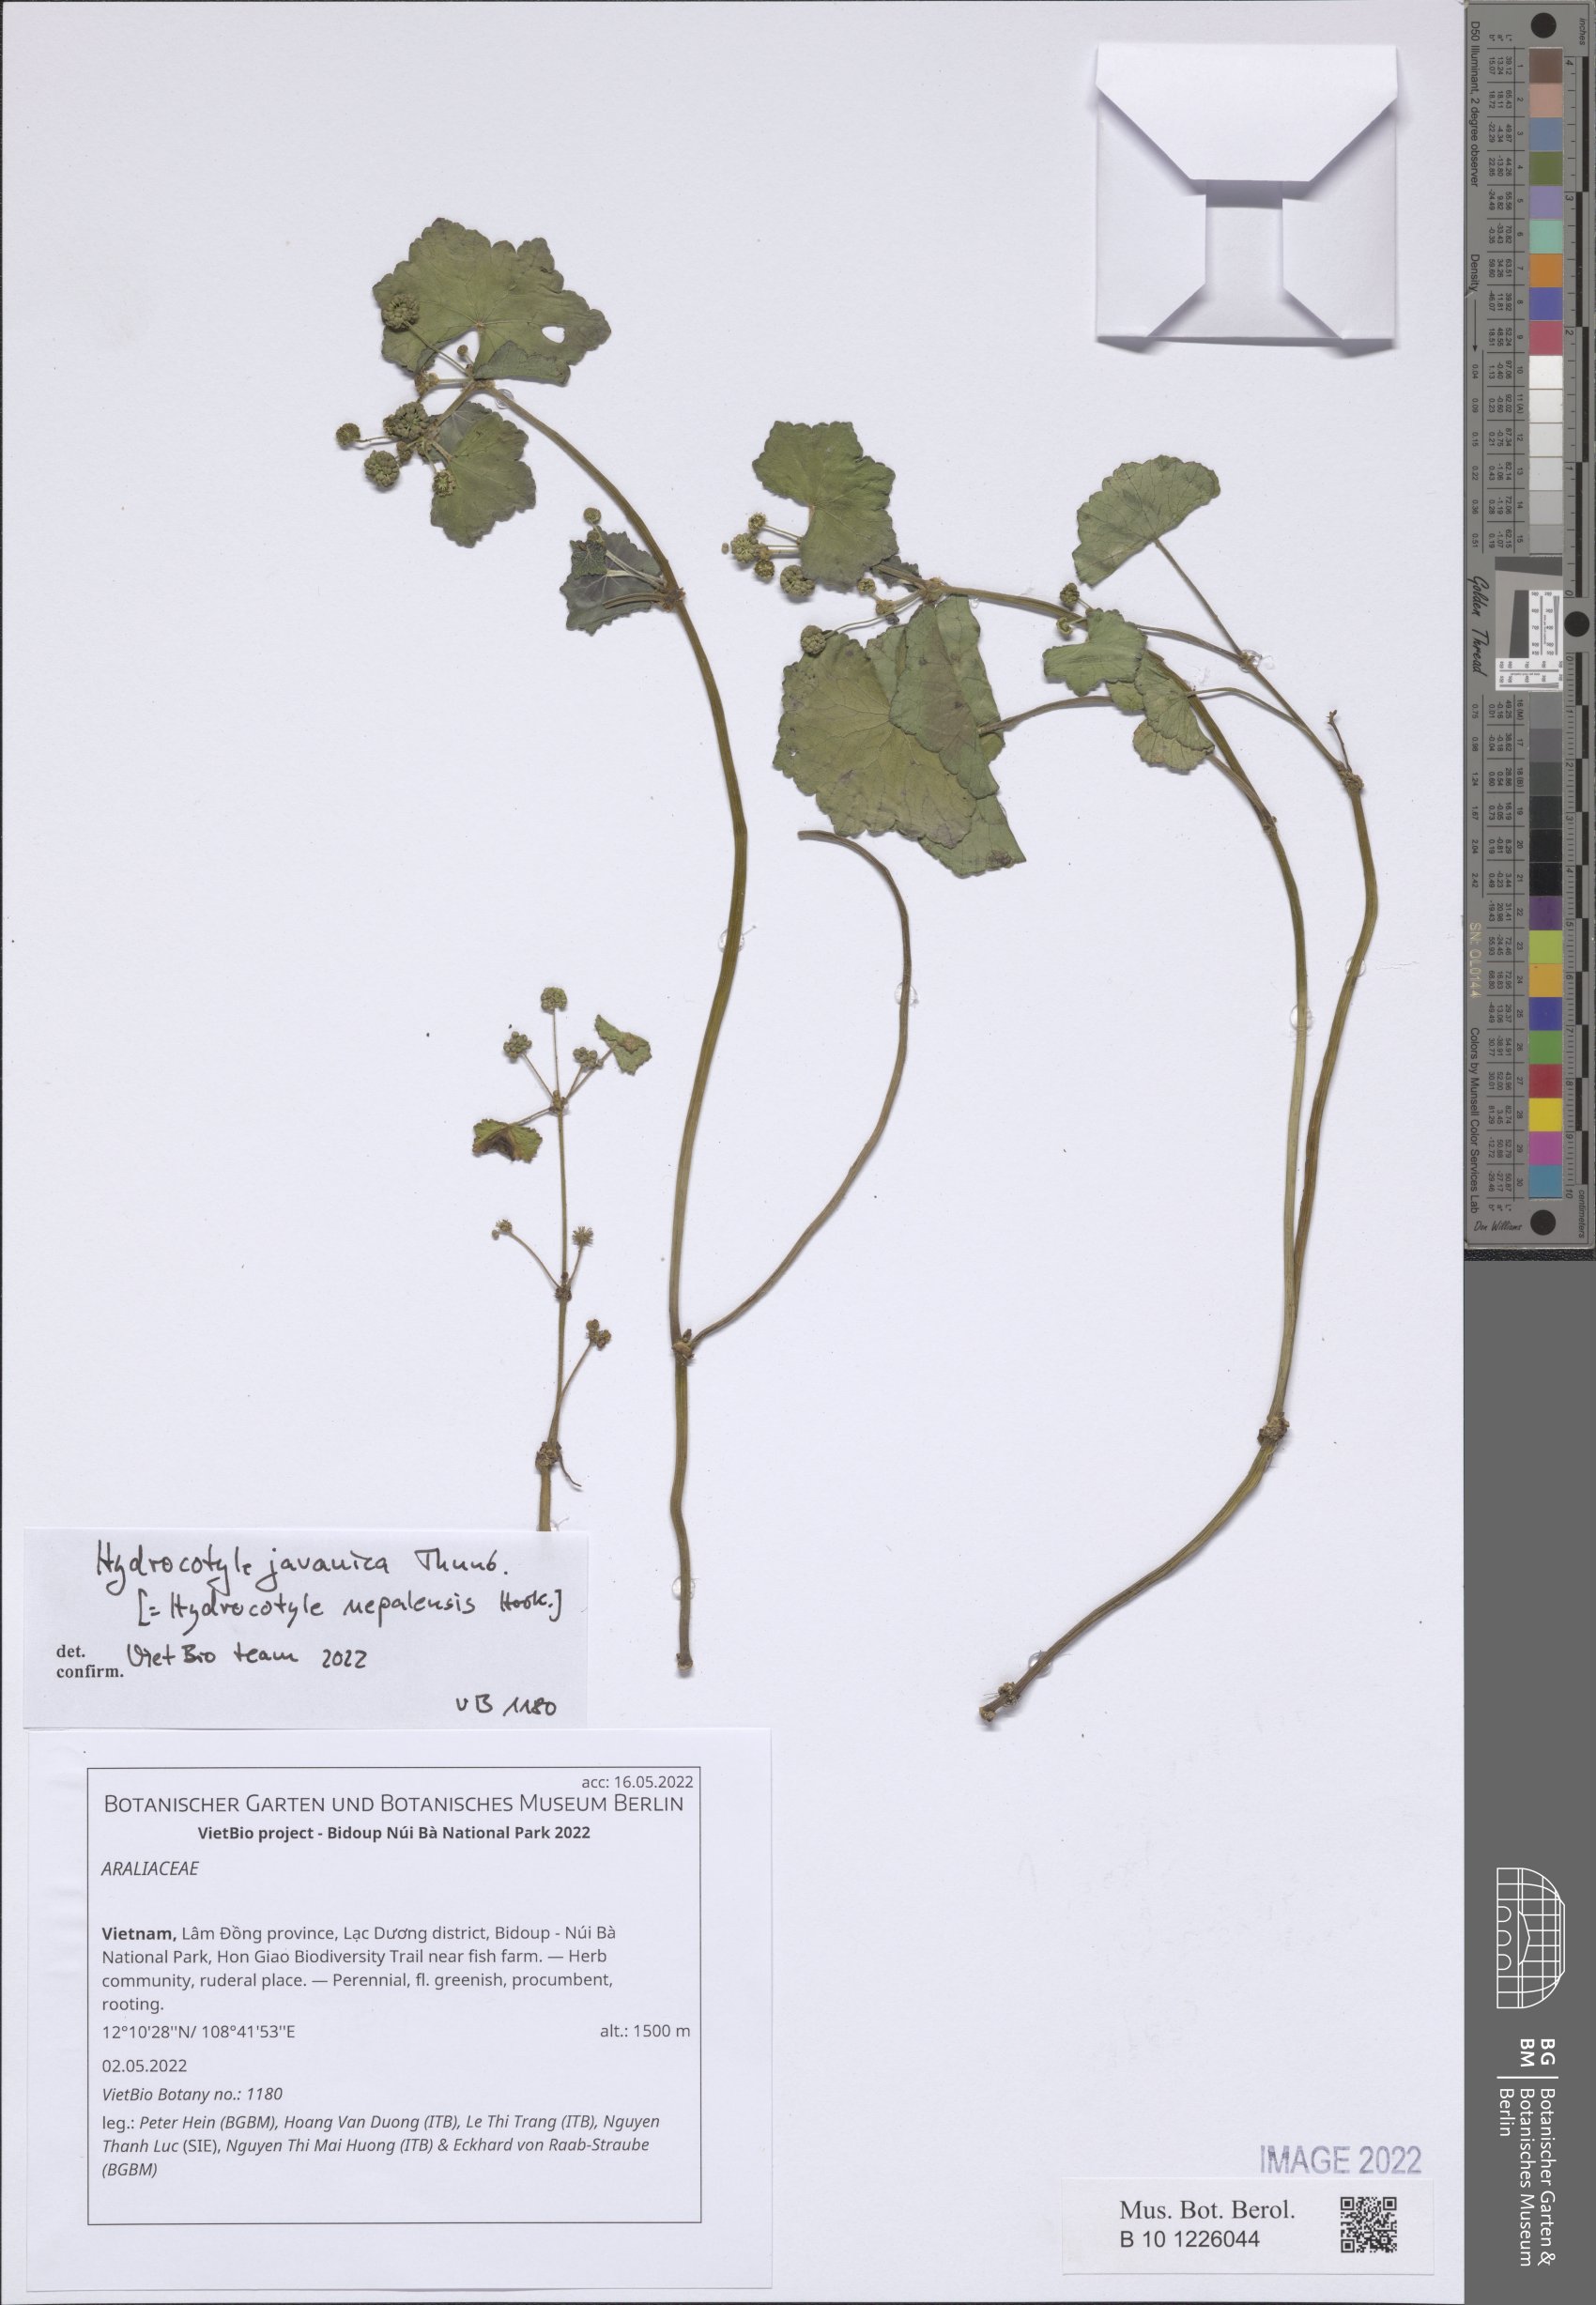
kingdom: Fungi
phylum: Ascomycota
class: Lecanoromycetes
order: Peltigerales
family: Lobariaceae
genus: Lobaria
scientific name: Lobaria
